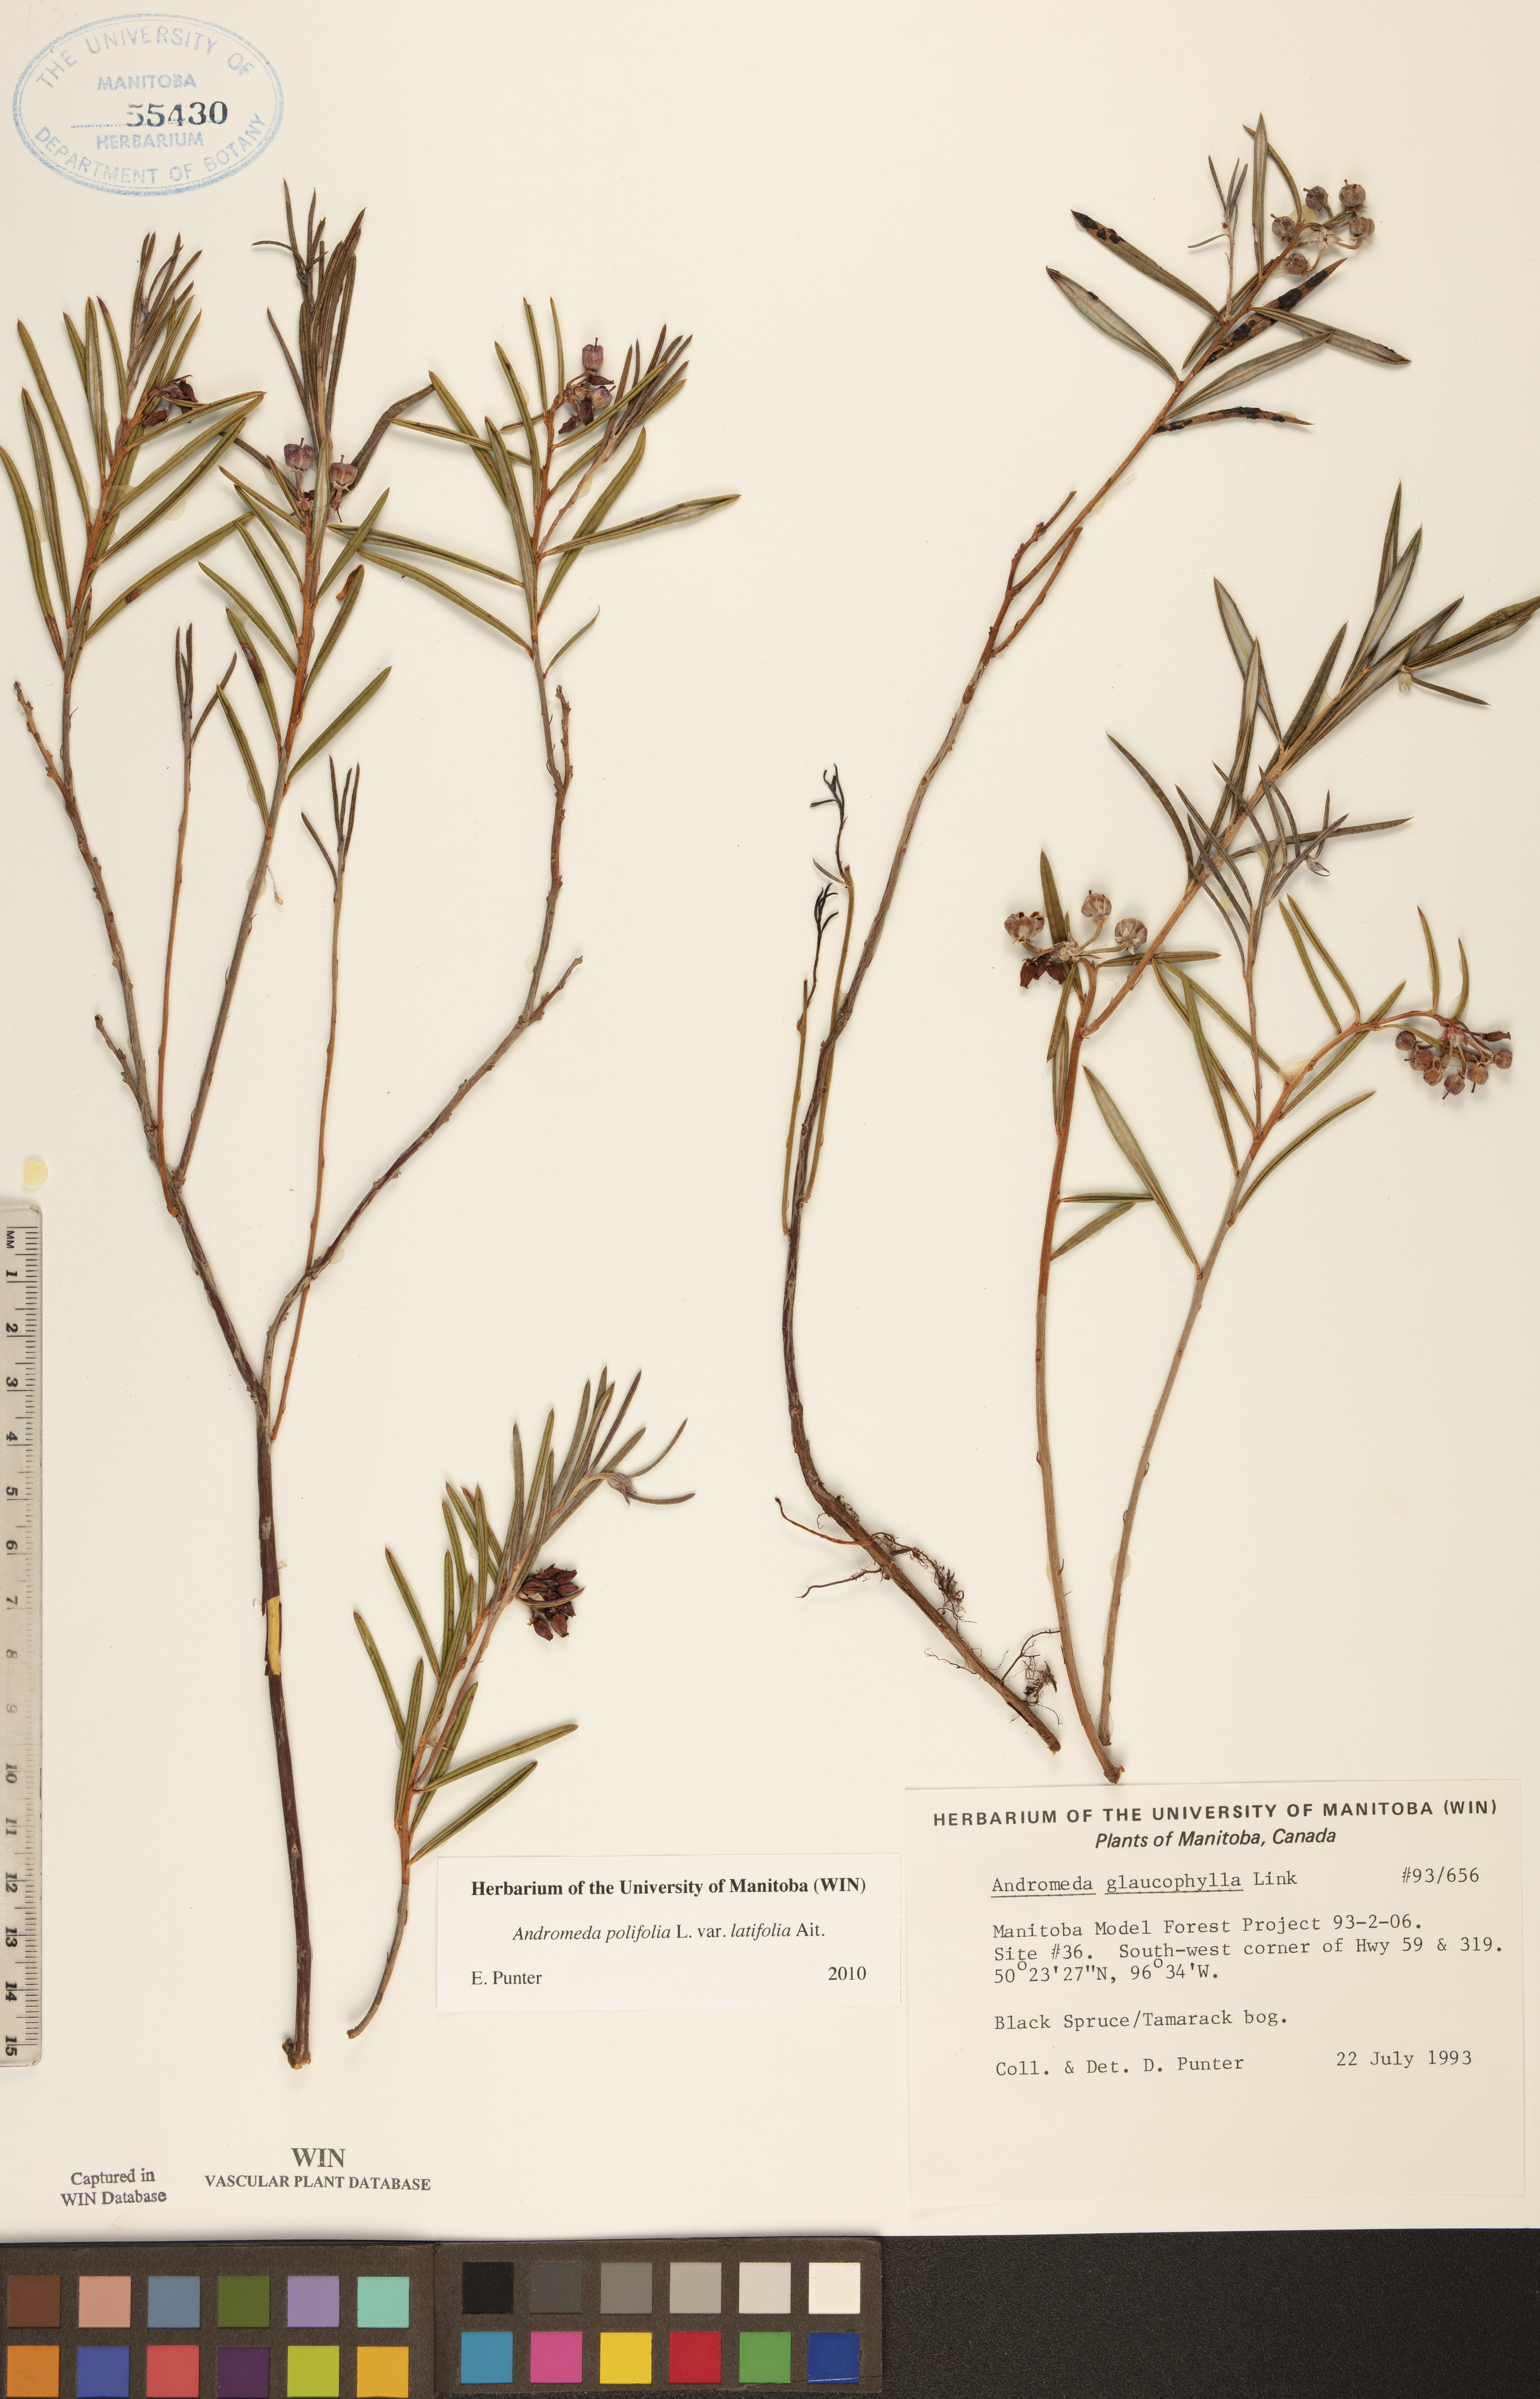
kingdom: Plantae
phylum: Tracheophyta
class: Magnoliopsida
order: Ericales
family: Ericaceae
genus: Andromeda
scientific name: Andromeda polifolia
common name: Bog-rosemary
